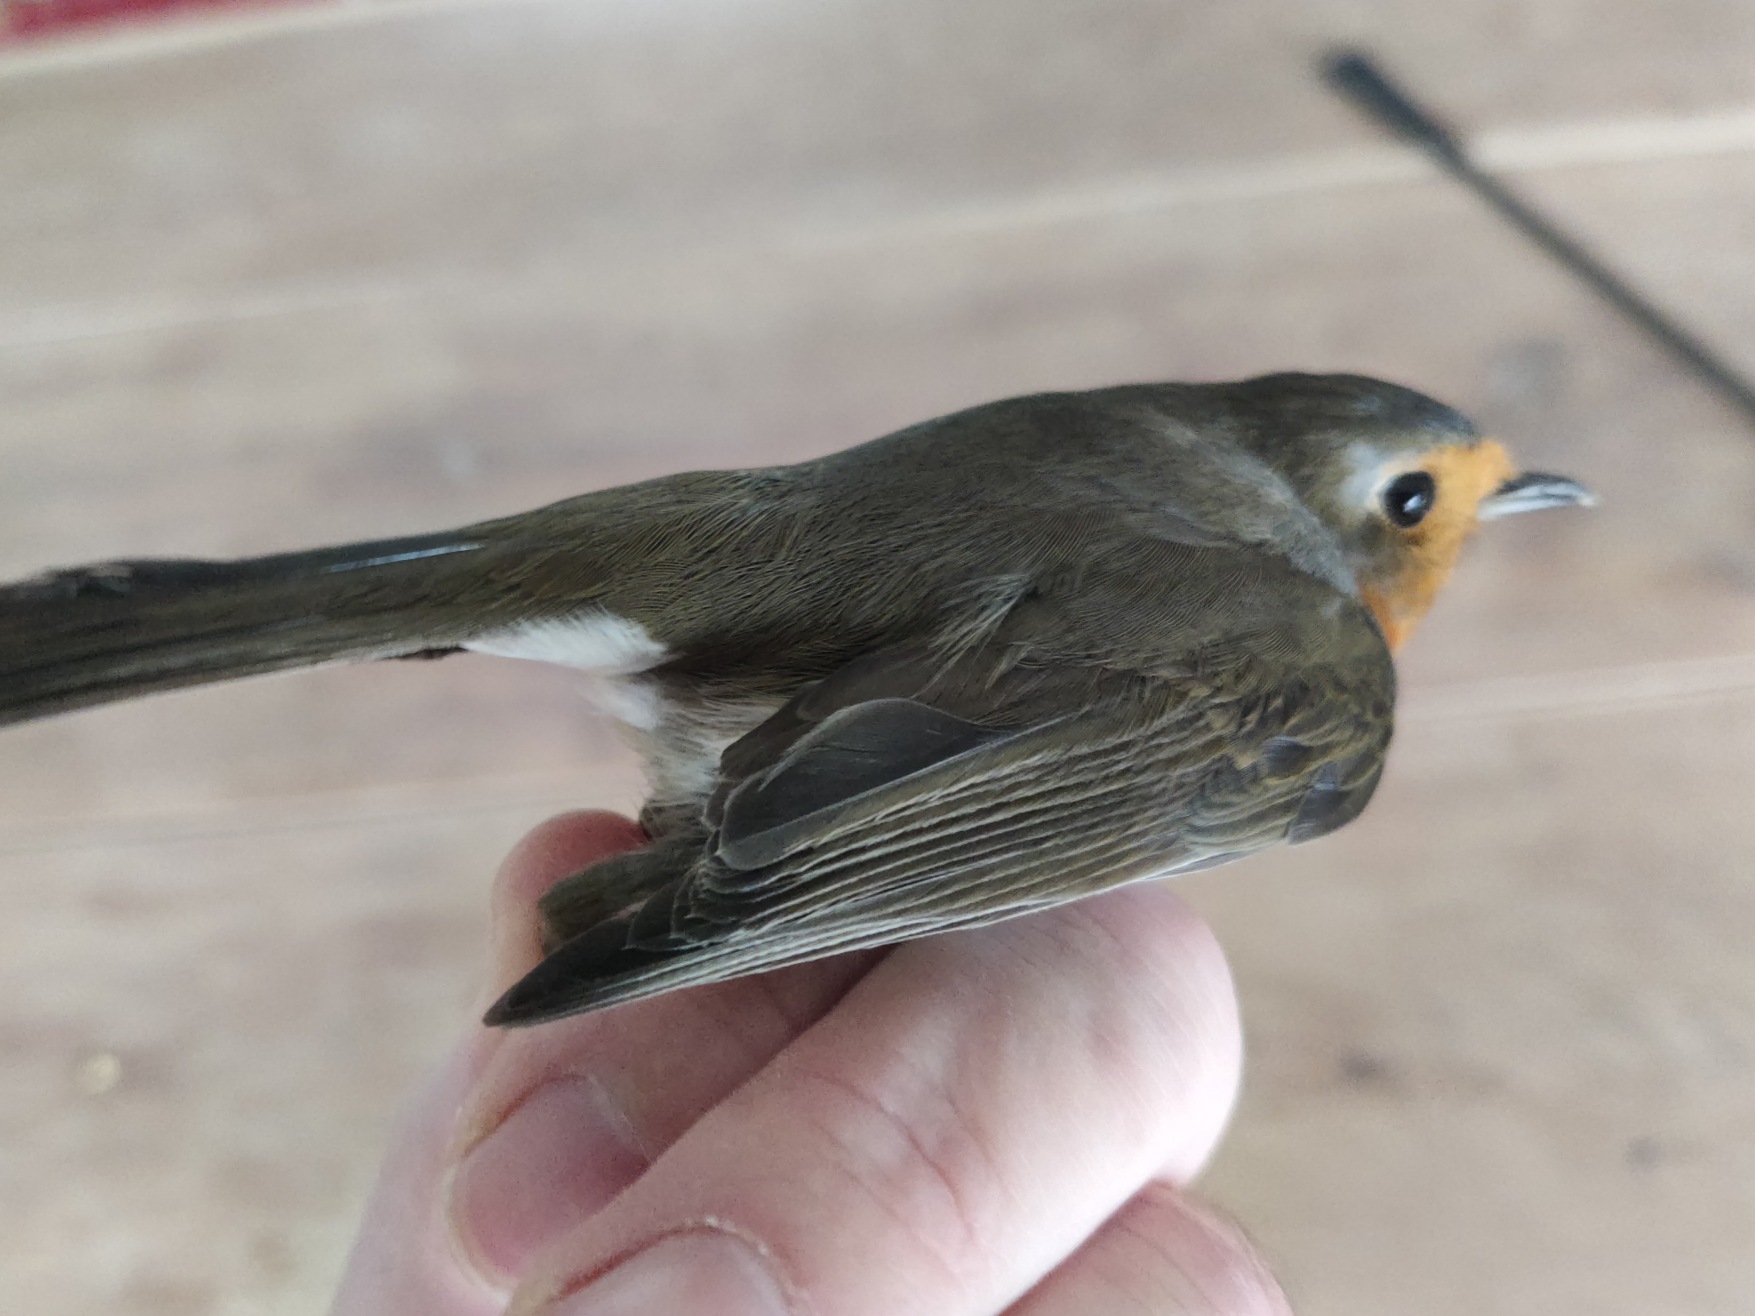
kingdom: Animalia
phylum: Chordata
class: Aves
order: Passeriformes
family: Muscicapidae
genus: Erithacus
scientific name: Erithacus rubecula
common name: Rødhals/rødkælk
